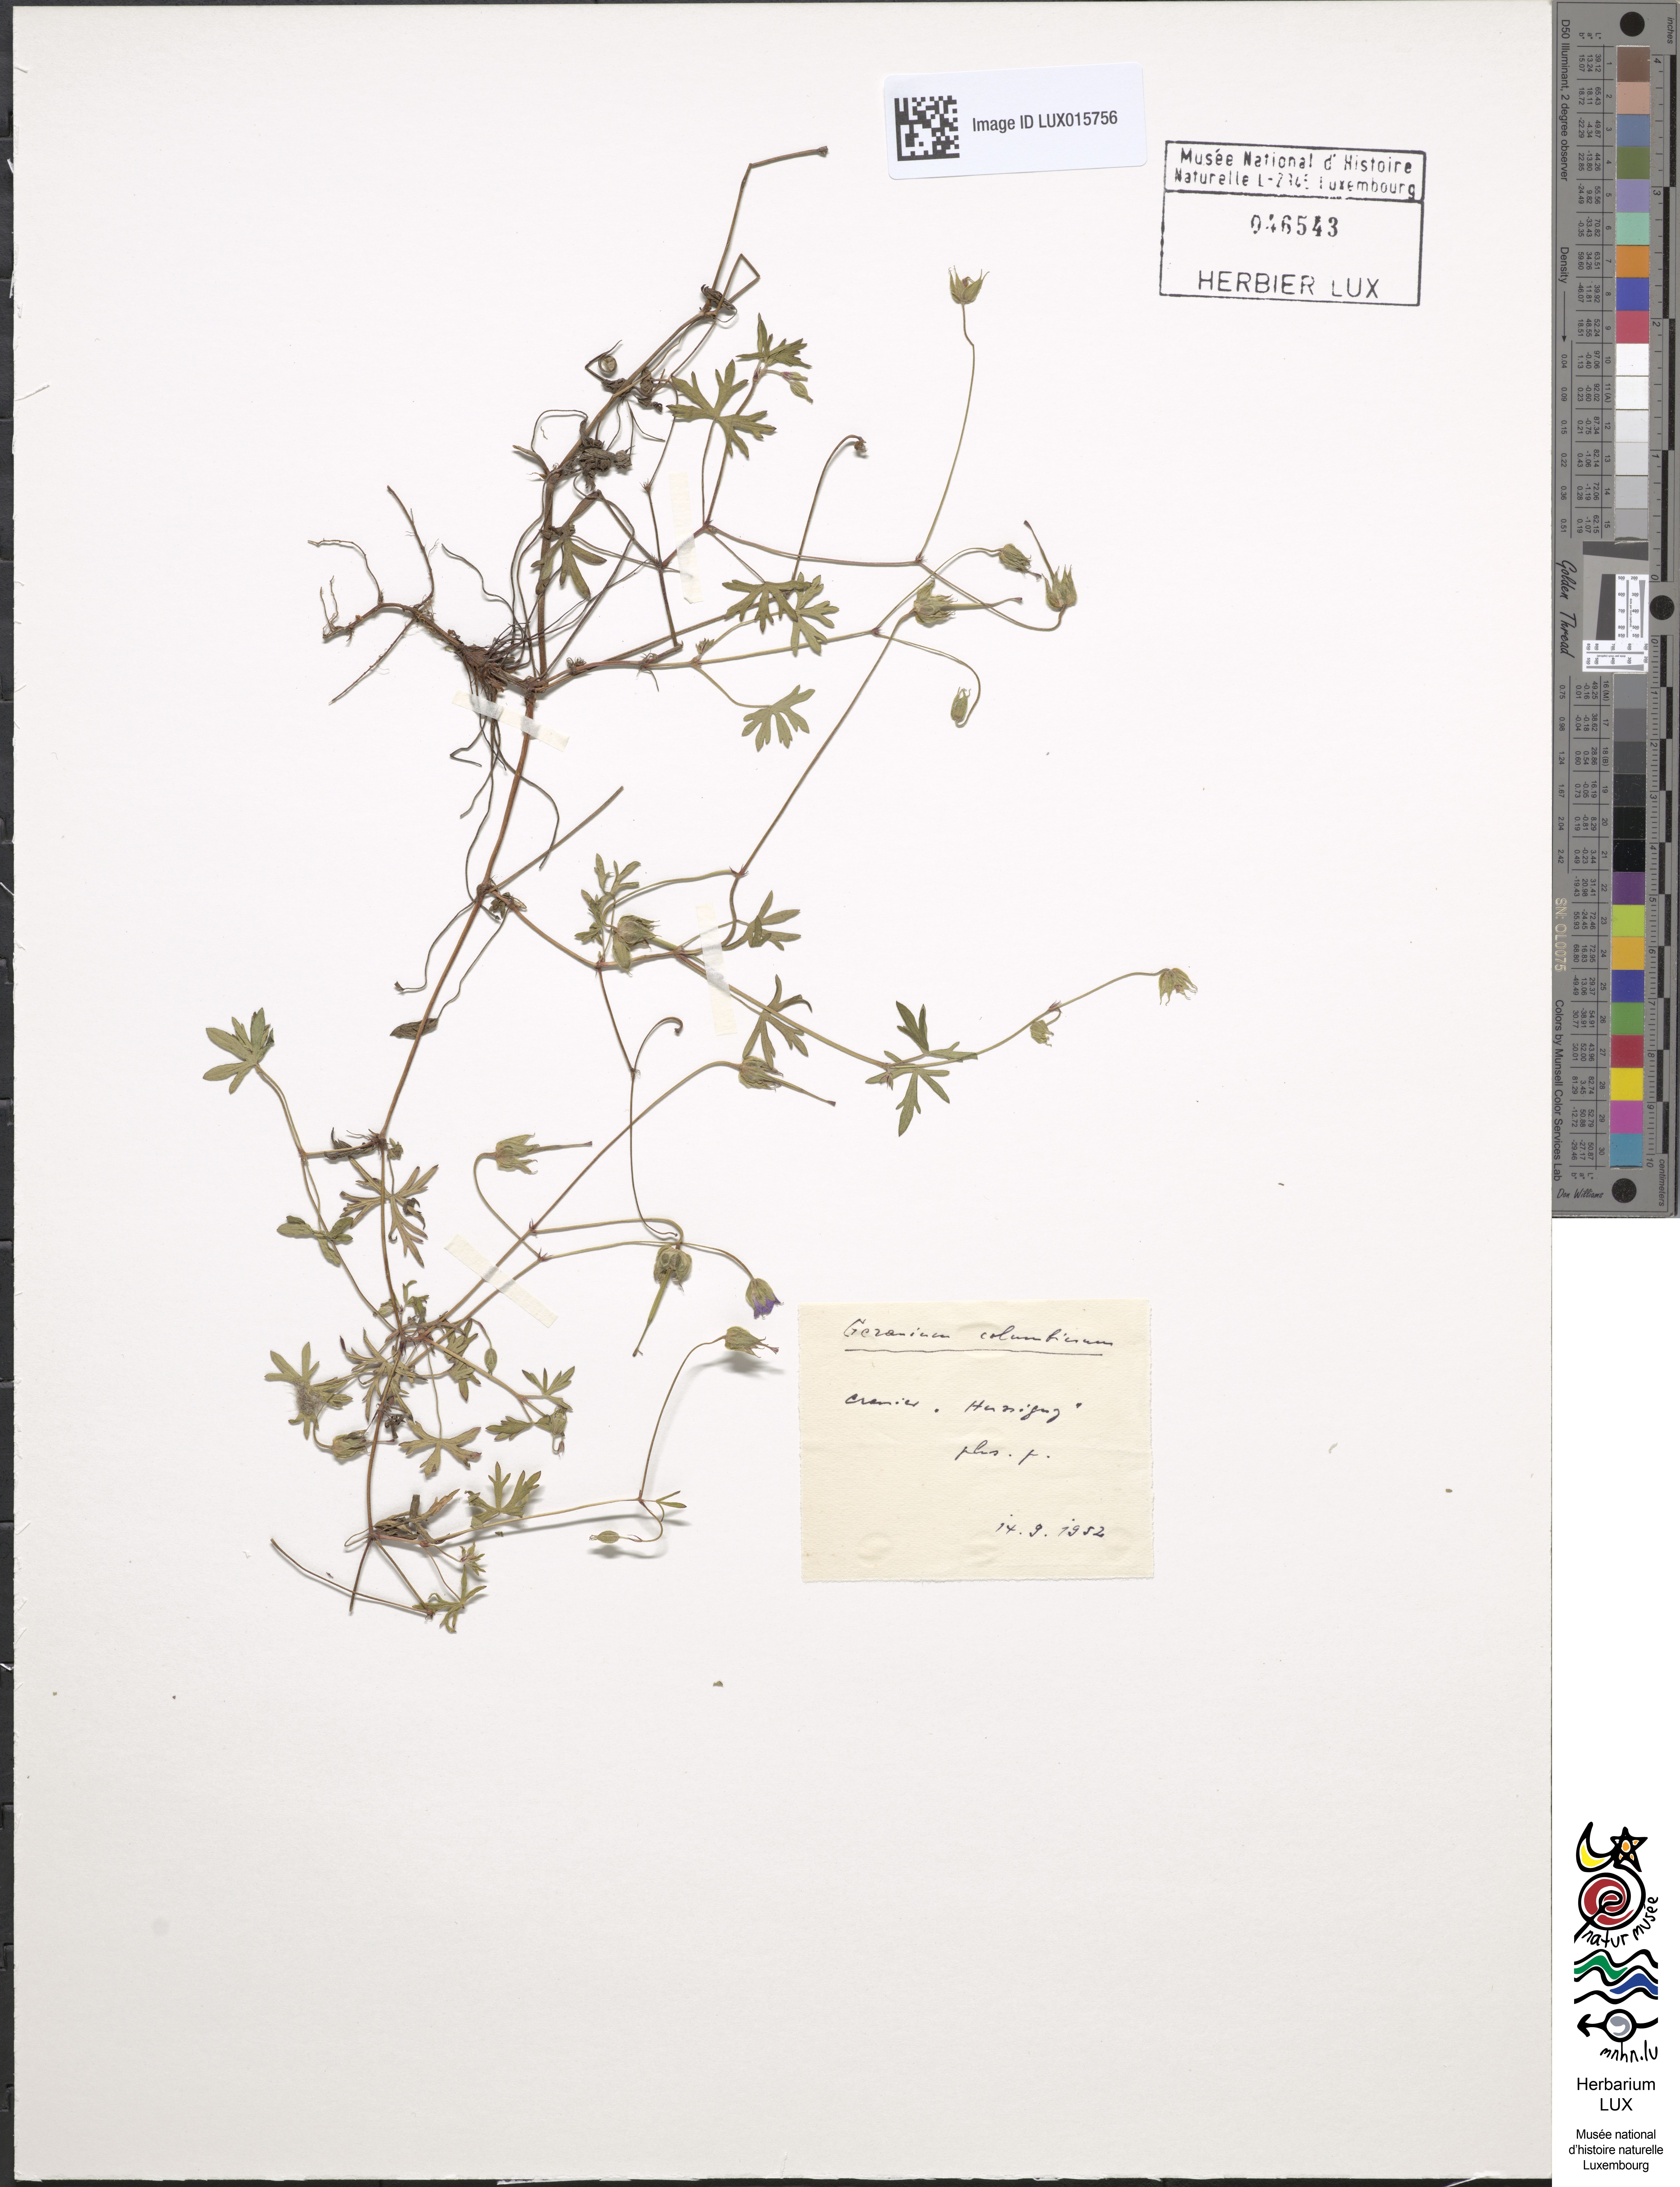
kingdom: Plantae
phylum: Tracheophyta
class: Magnoliopsida
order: Geraniales
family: Geraniaceae
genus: Geranium
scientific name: Geranium columbinum
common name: Long-stalked crane's-bill
